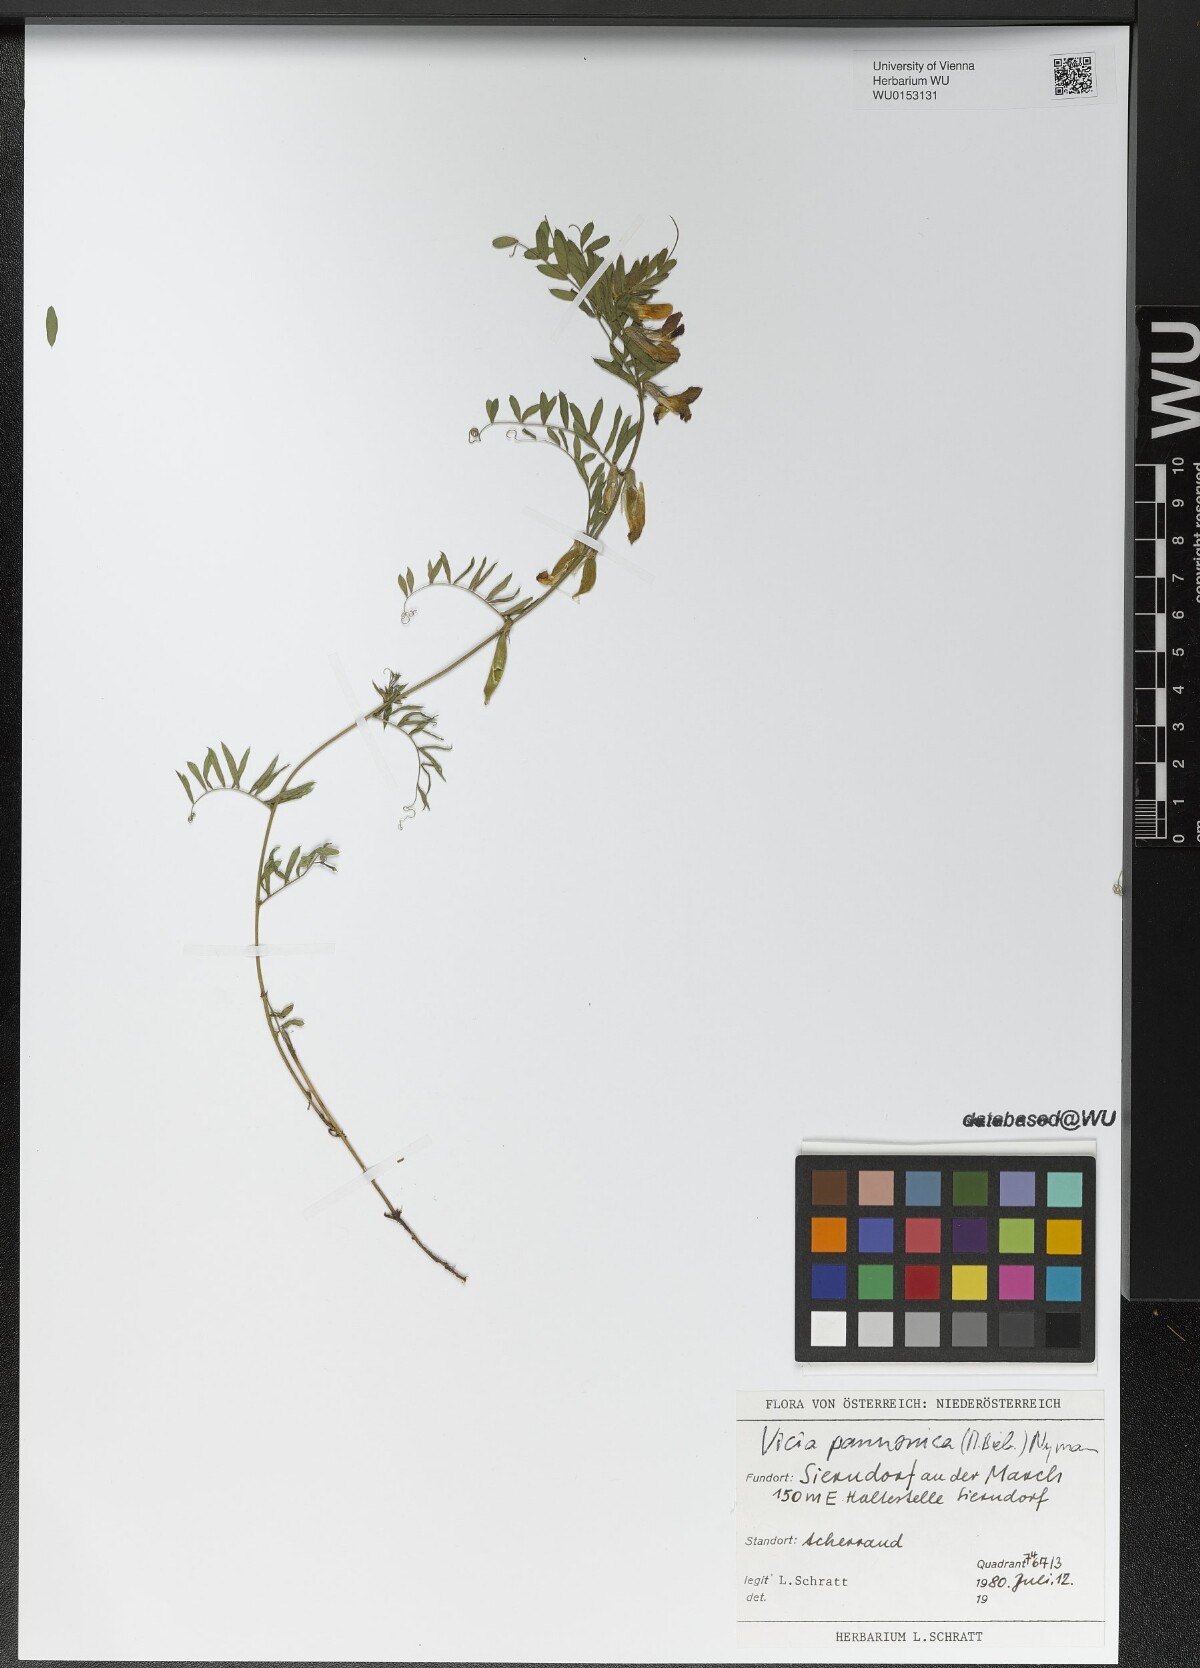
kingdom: Plantae
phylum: Tracheophyta
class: Magnoliopsida
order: Fabales
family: Fabaceae
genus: Vicia
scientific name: Vicia pannonica
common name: Hungarian vetch
